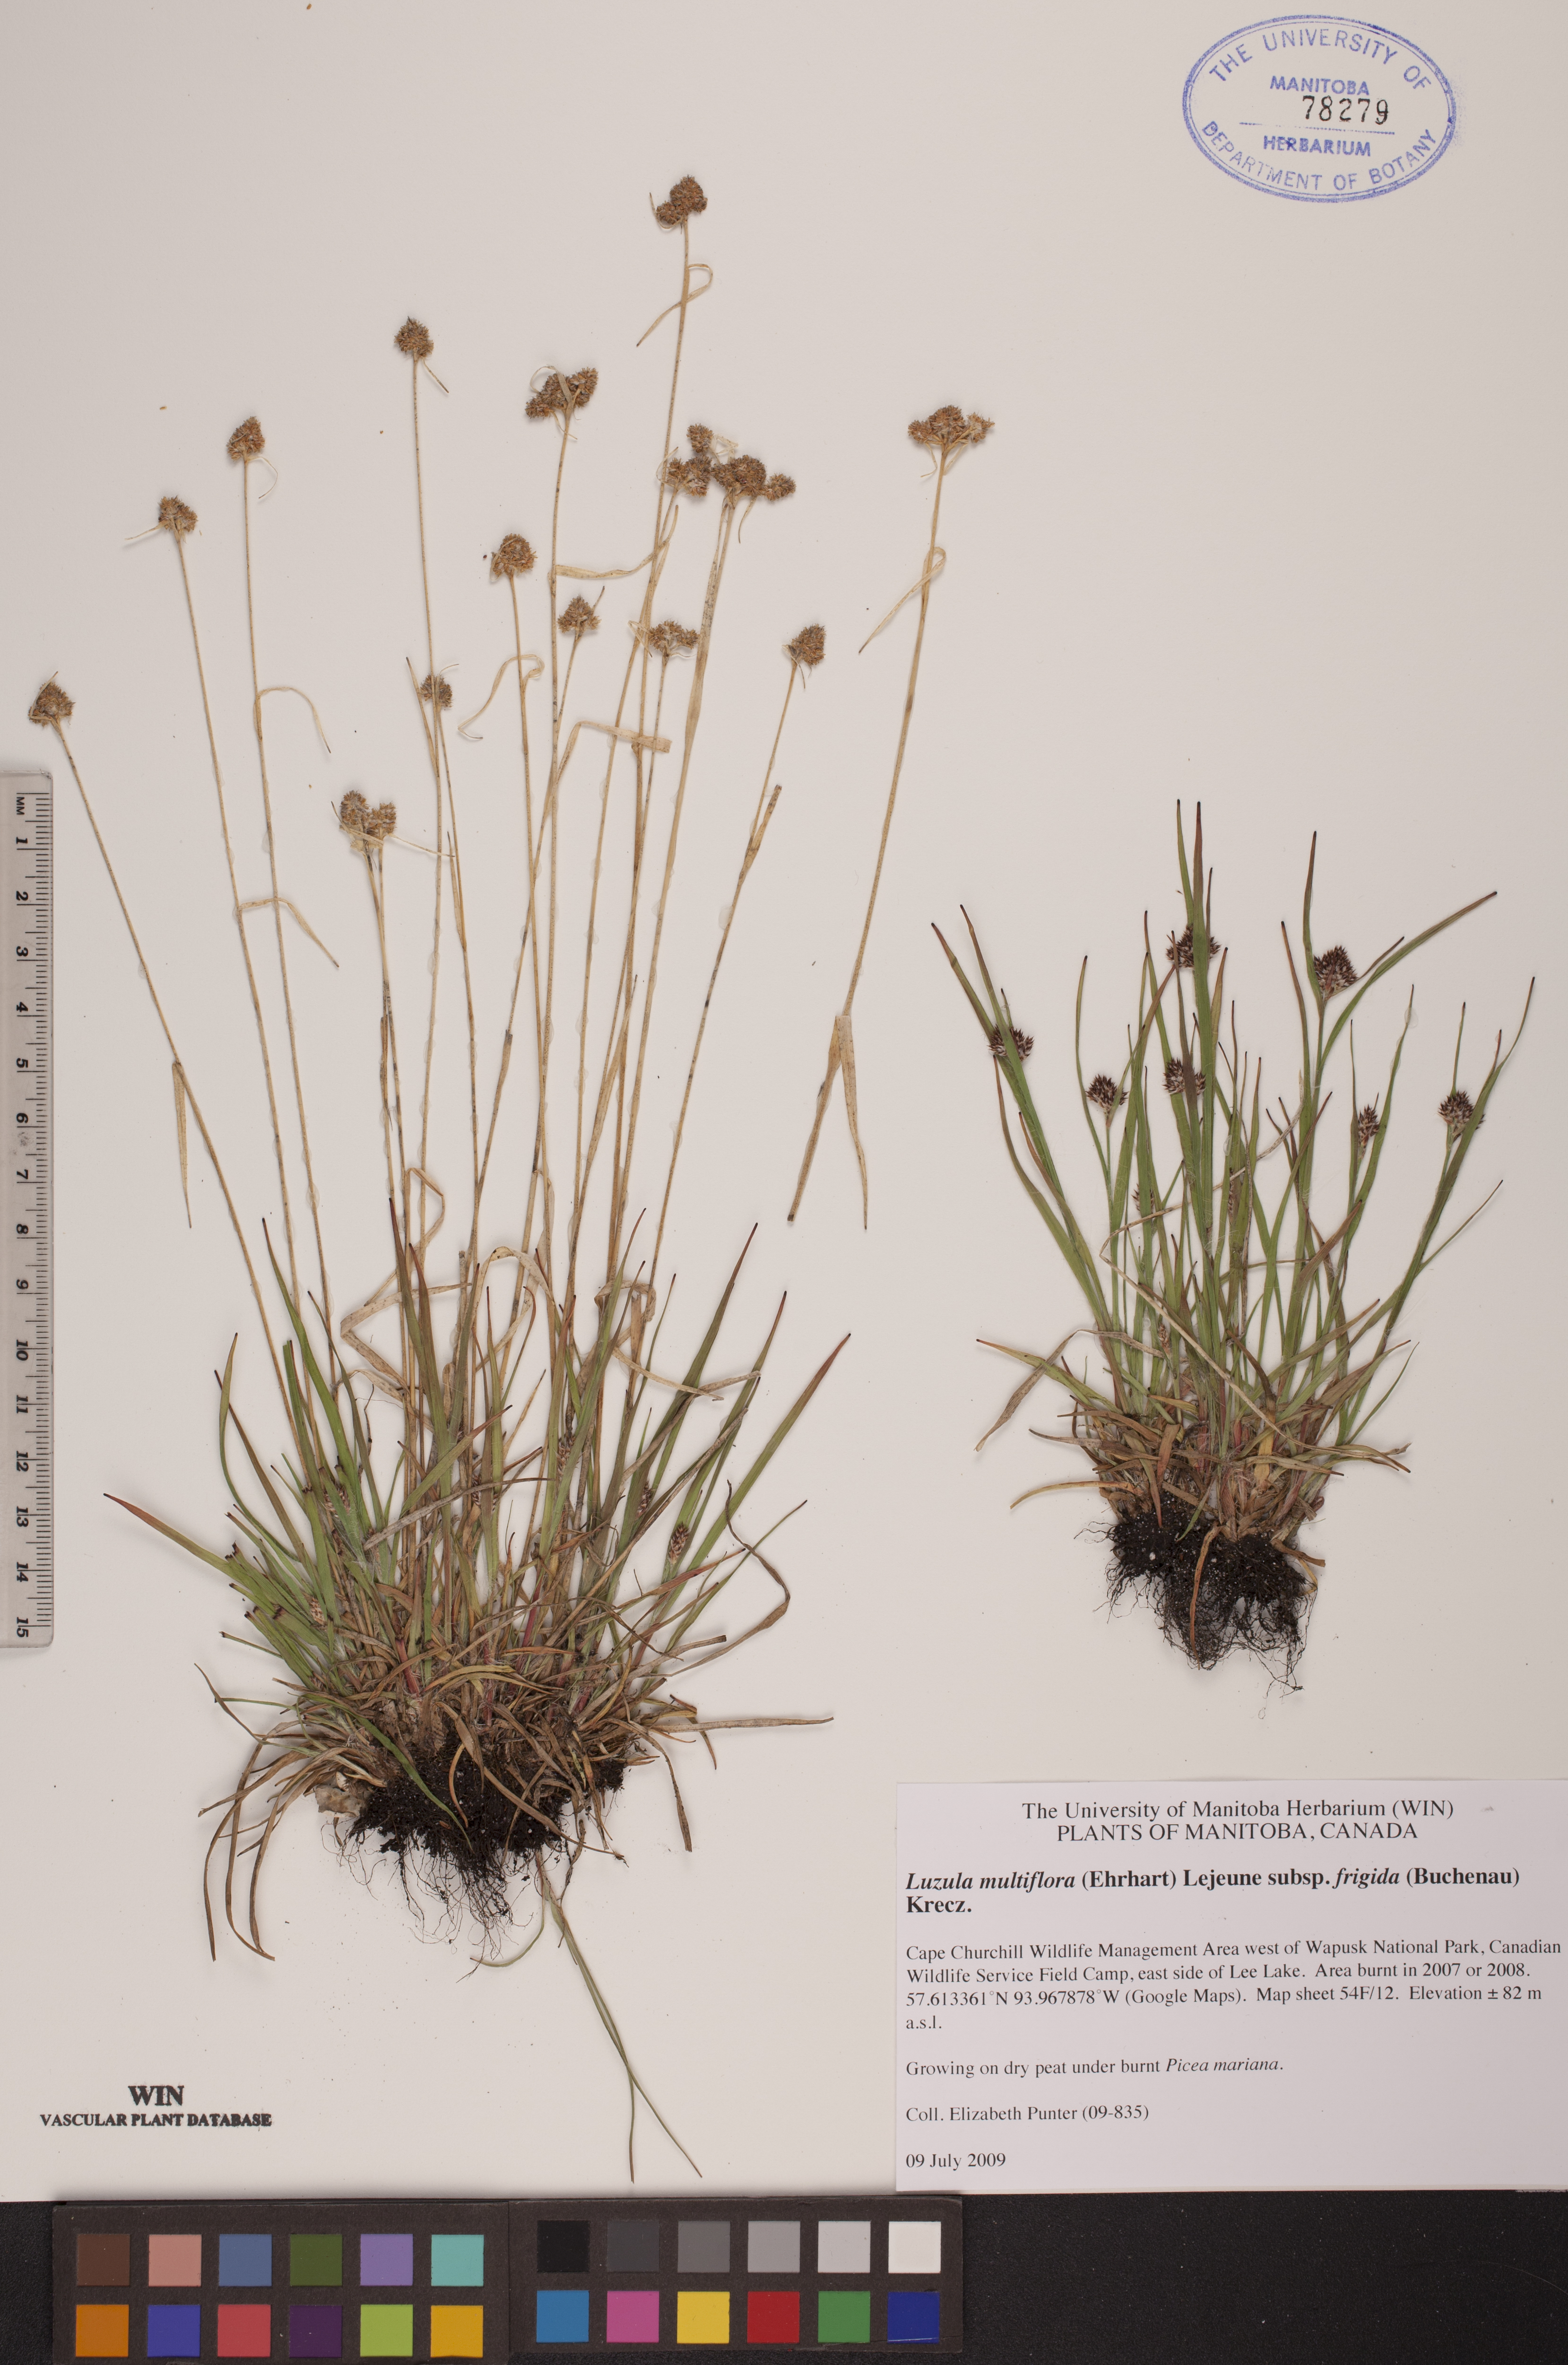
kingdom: Plantae
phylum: Tracheophyta
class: Liliopsida
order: Poales
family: Juncaceae
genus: Luzula
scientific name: Luzula multiflora
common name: Heath wood-rush
